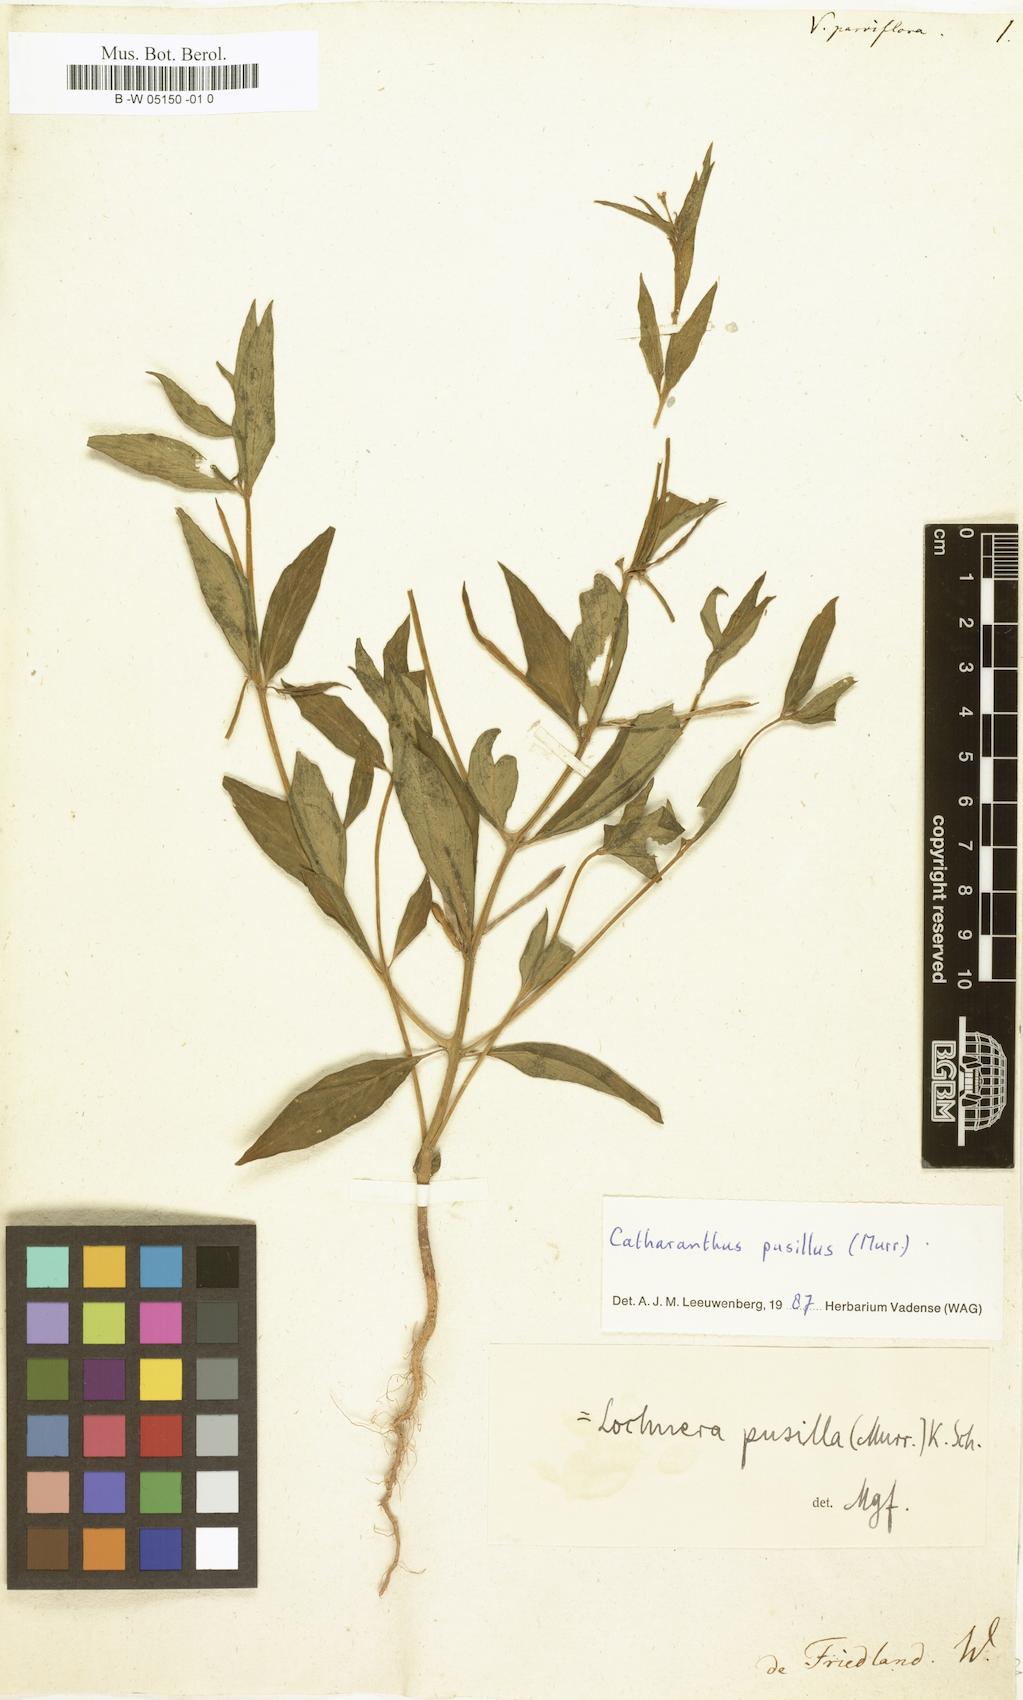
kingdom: Plantae
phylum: Tracheophyta
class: Magnoliopsida
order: Gentianales
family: Apocynaceae
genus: Catharanthus
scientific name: Catharanthus pusillus
